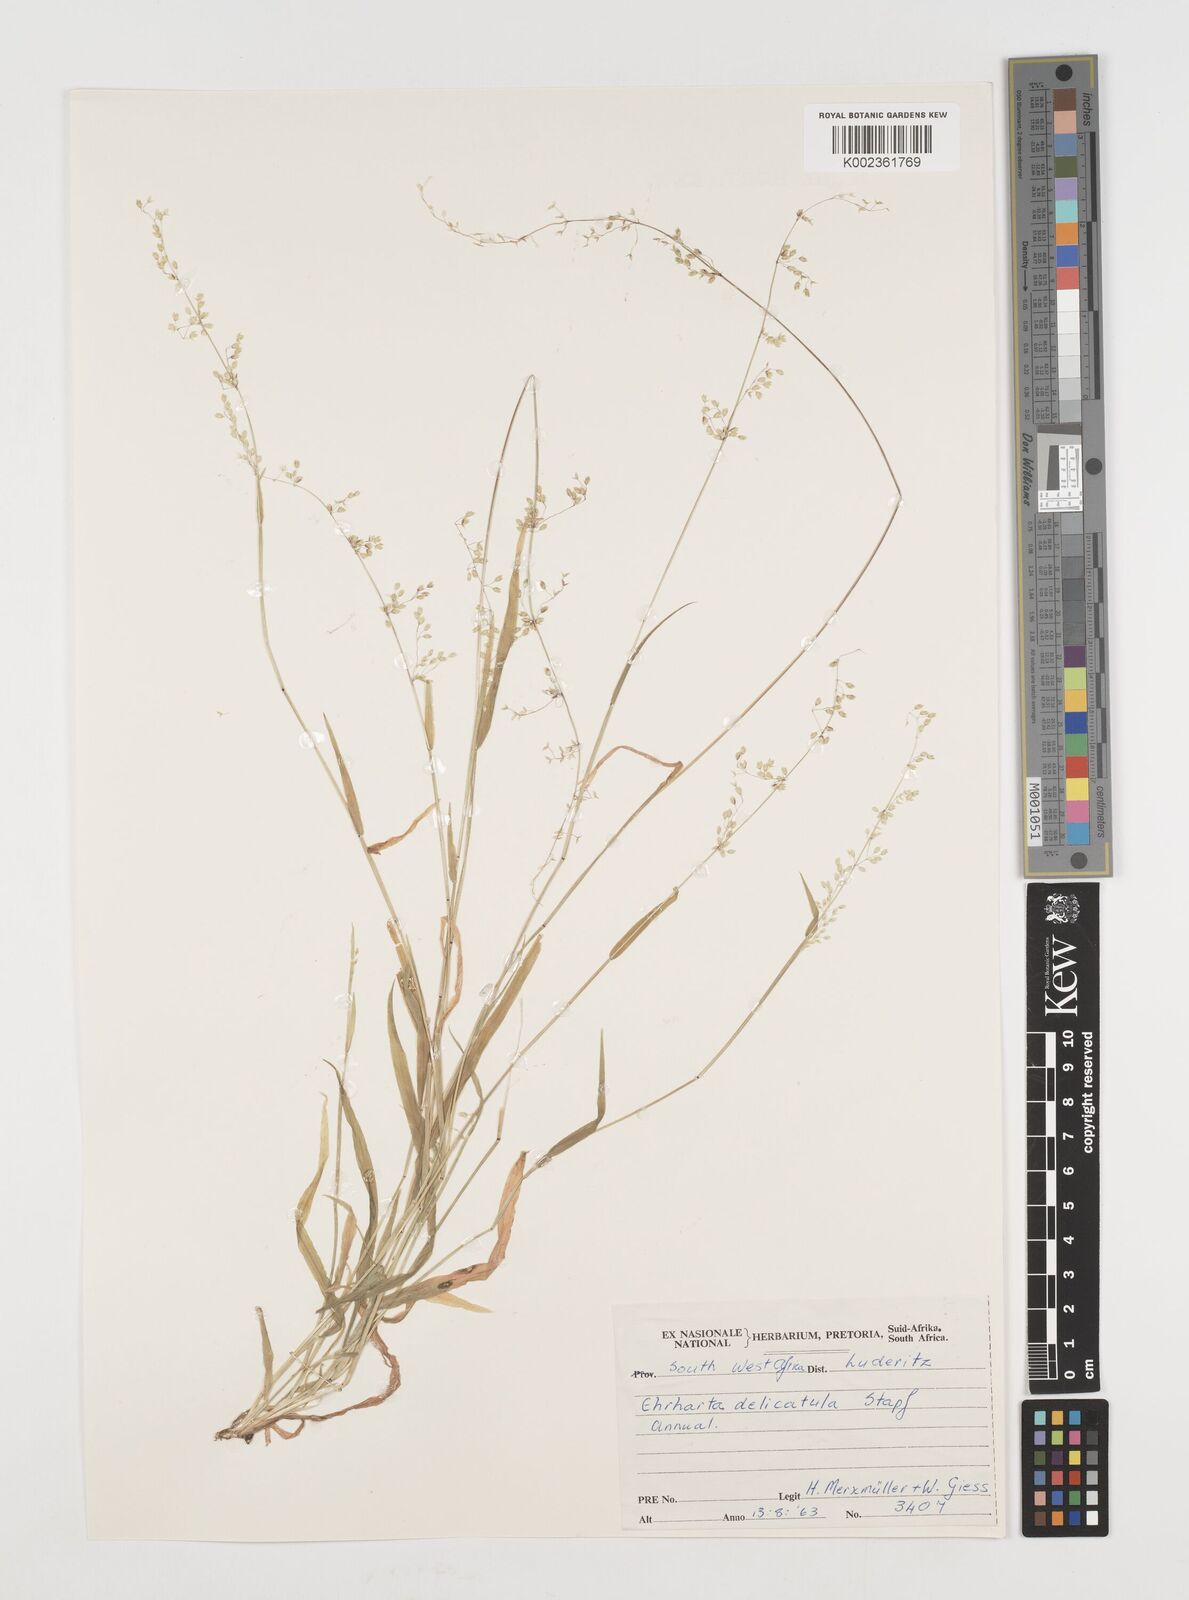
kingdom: Plantae
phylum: Tracheophyta
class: Liliopsida
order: Poales
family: Poaceae
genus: Ehrharta
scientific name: Ehrharta delicatula
